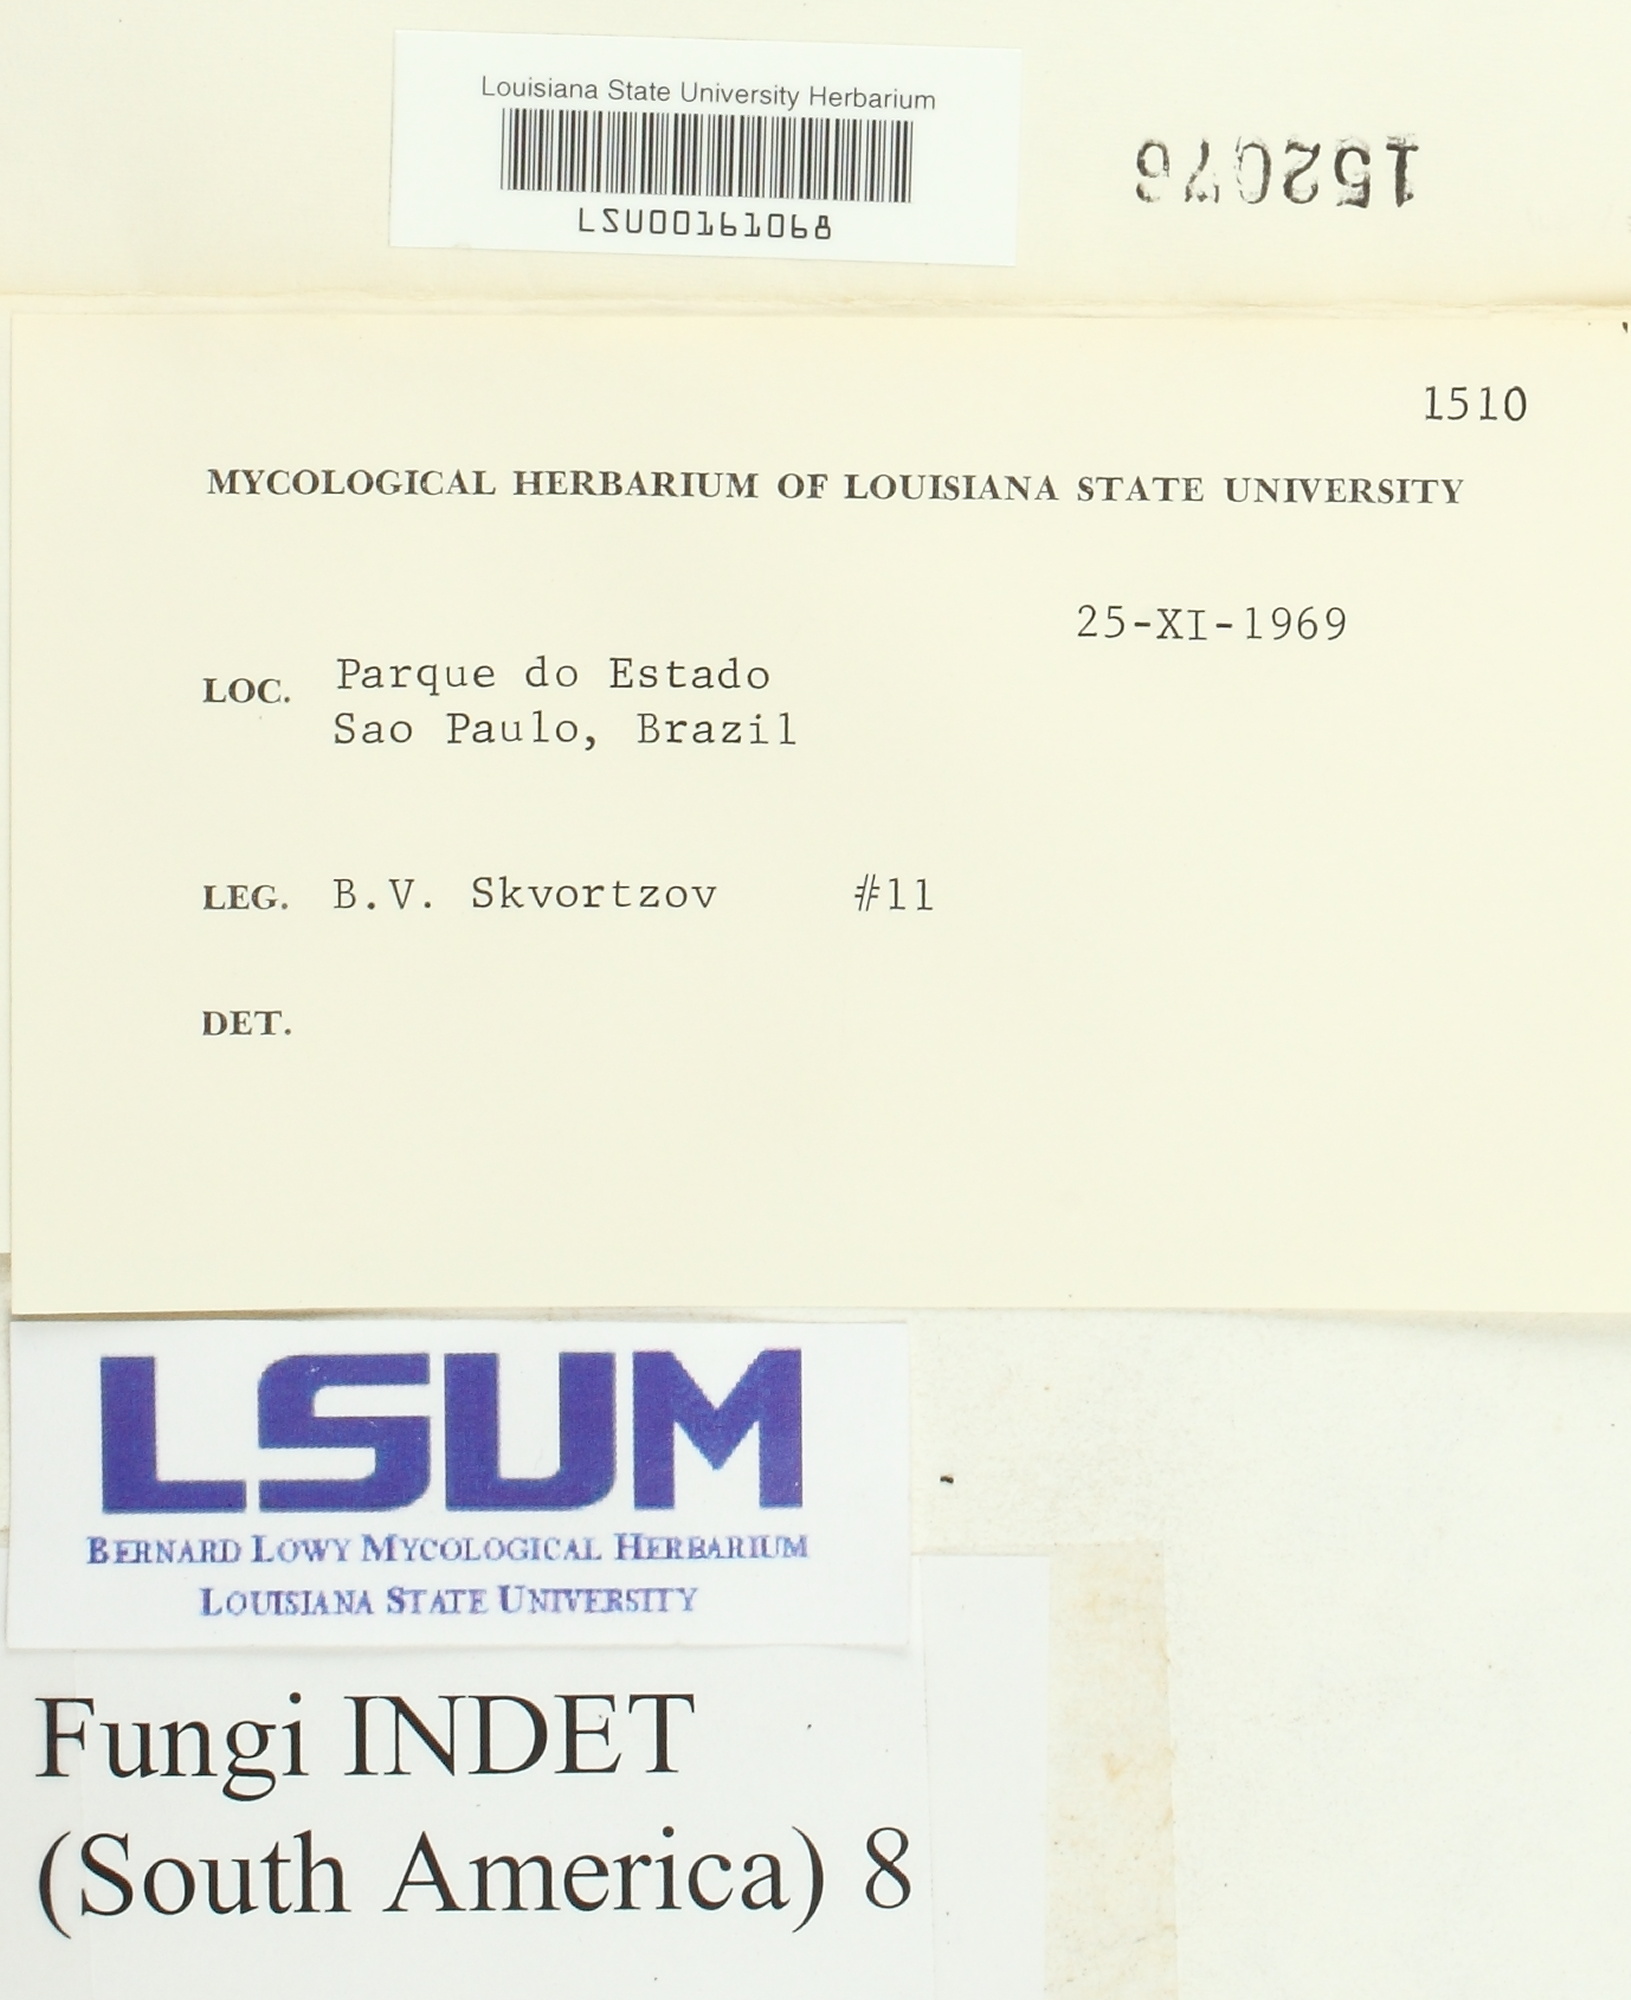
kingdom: Fungi
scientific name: Fungi
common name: Fungi
